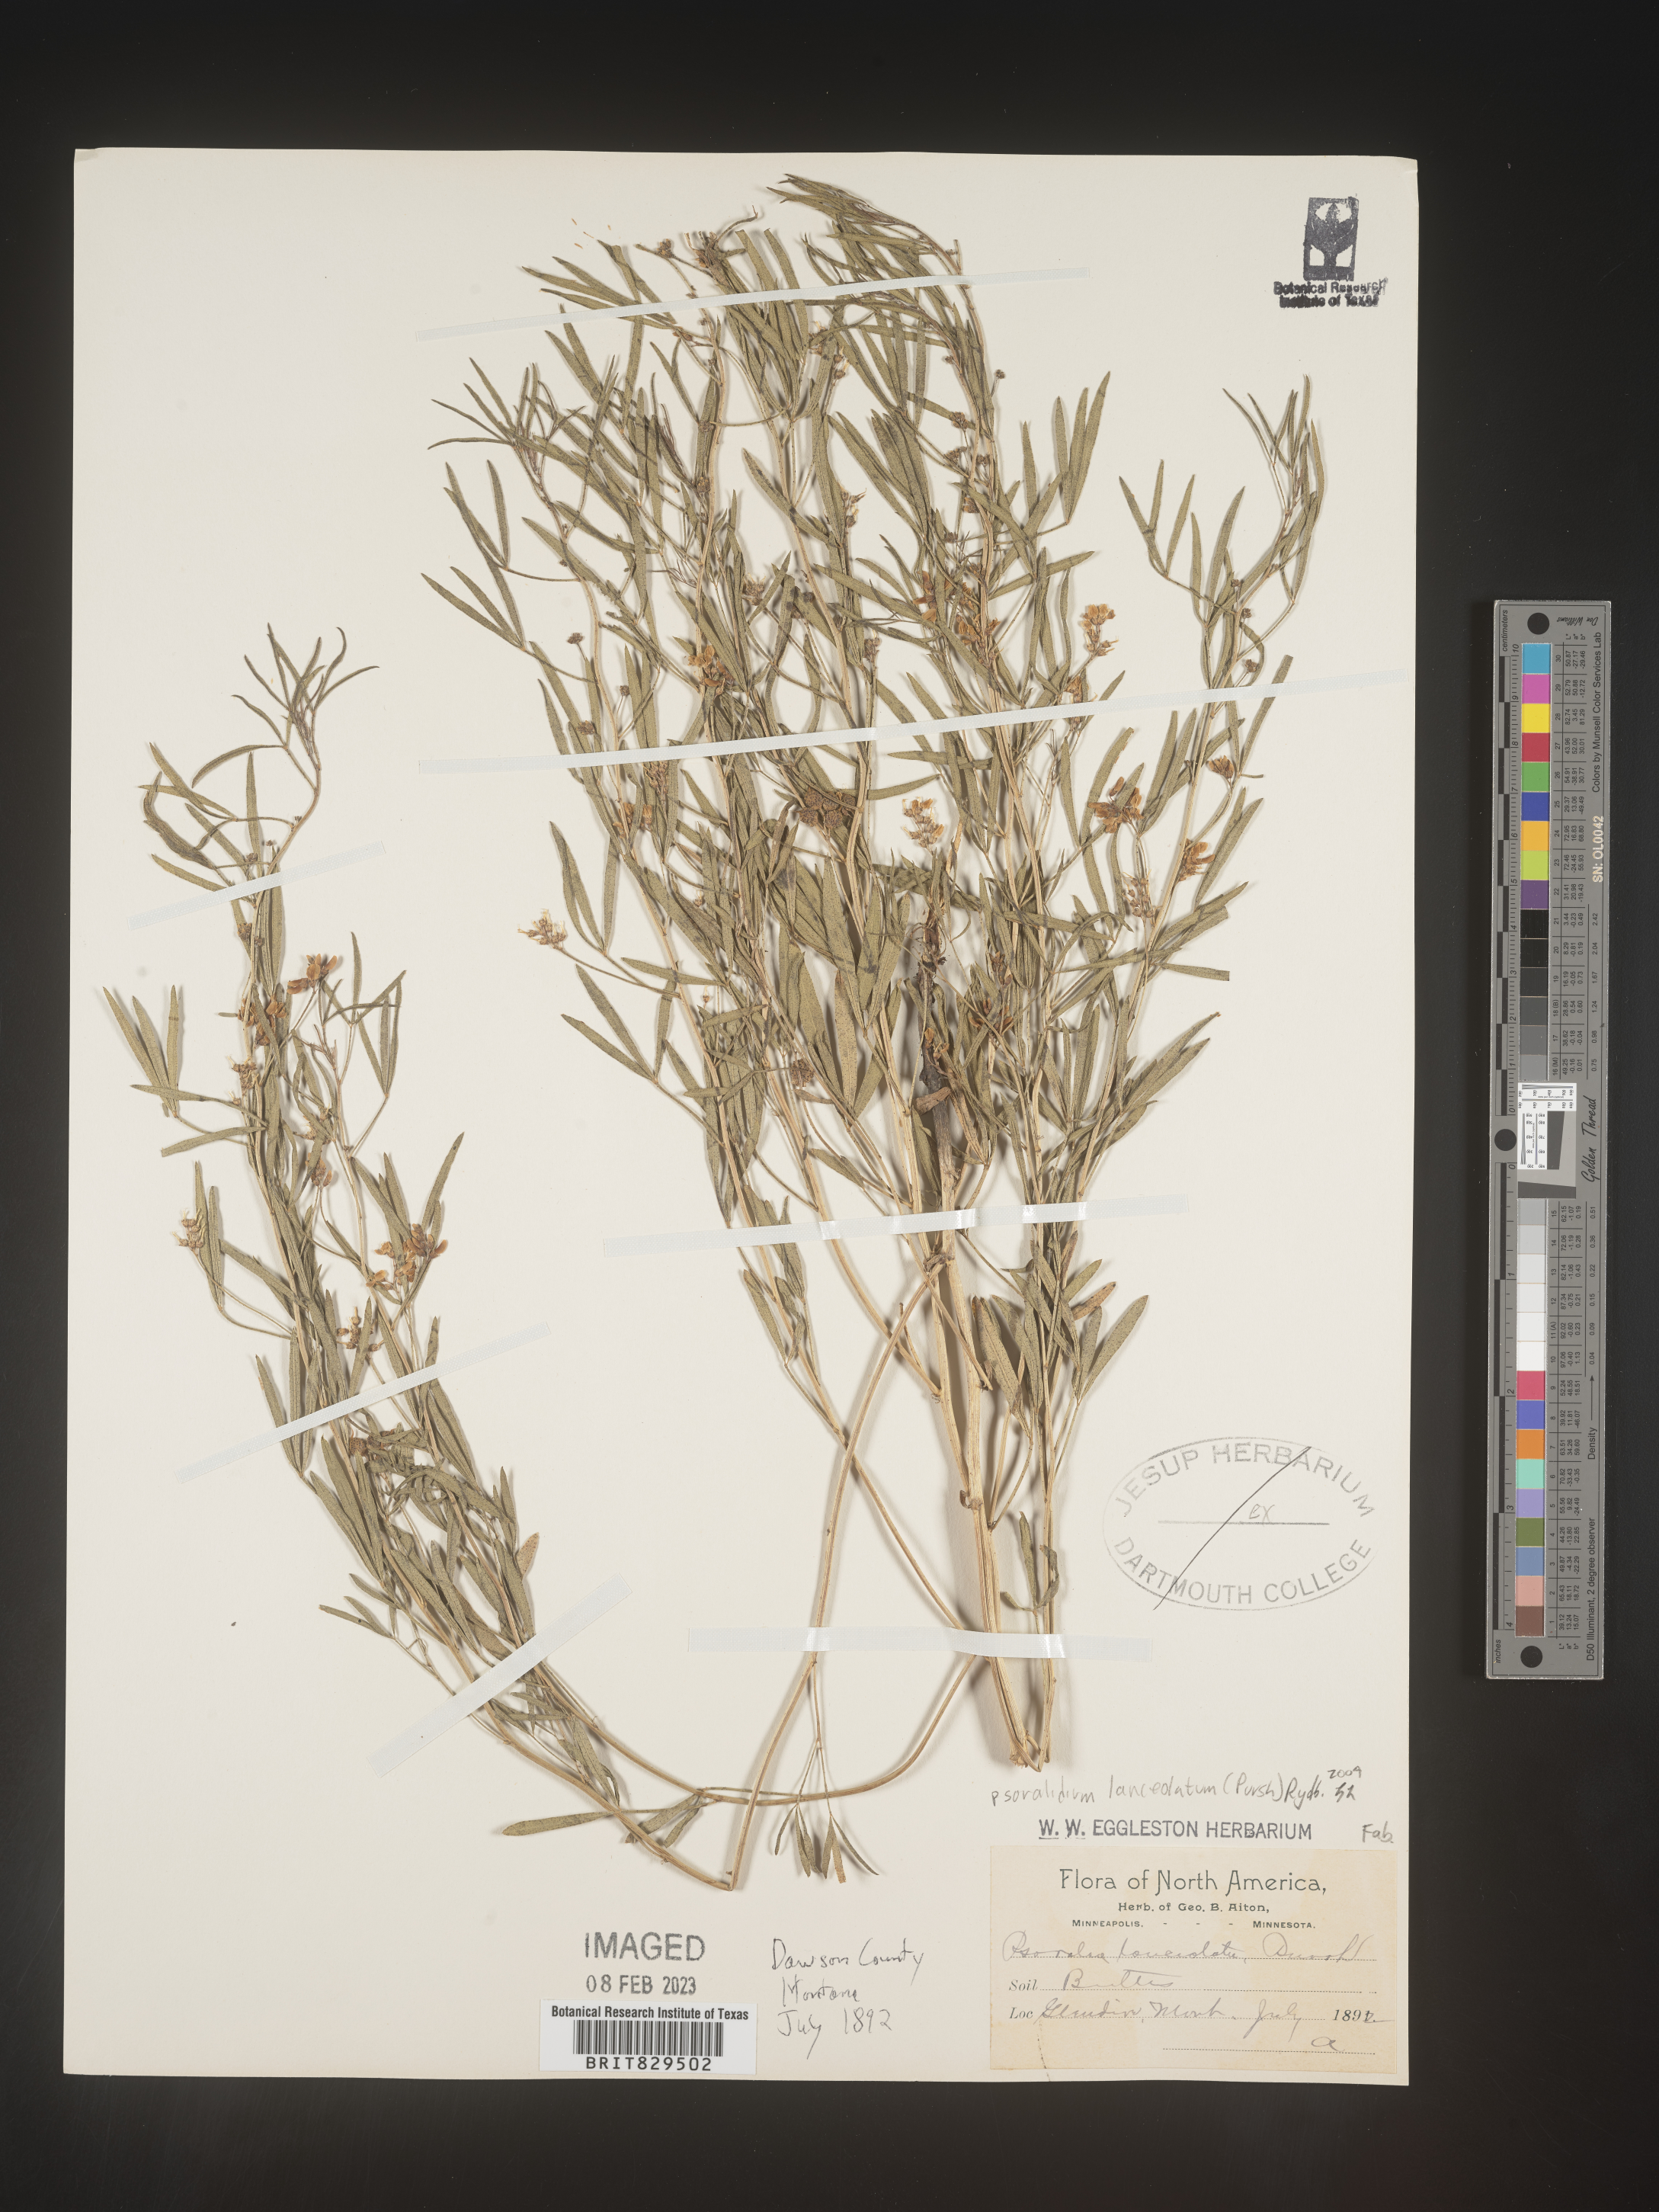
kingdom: Plantae
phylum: Tracheophyta
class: Magnoliopsida
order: Fabales
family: Fabaceae
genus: Ladeania
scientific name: Ladeania lanceolata
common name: Dune scurf-pea
